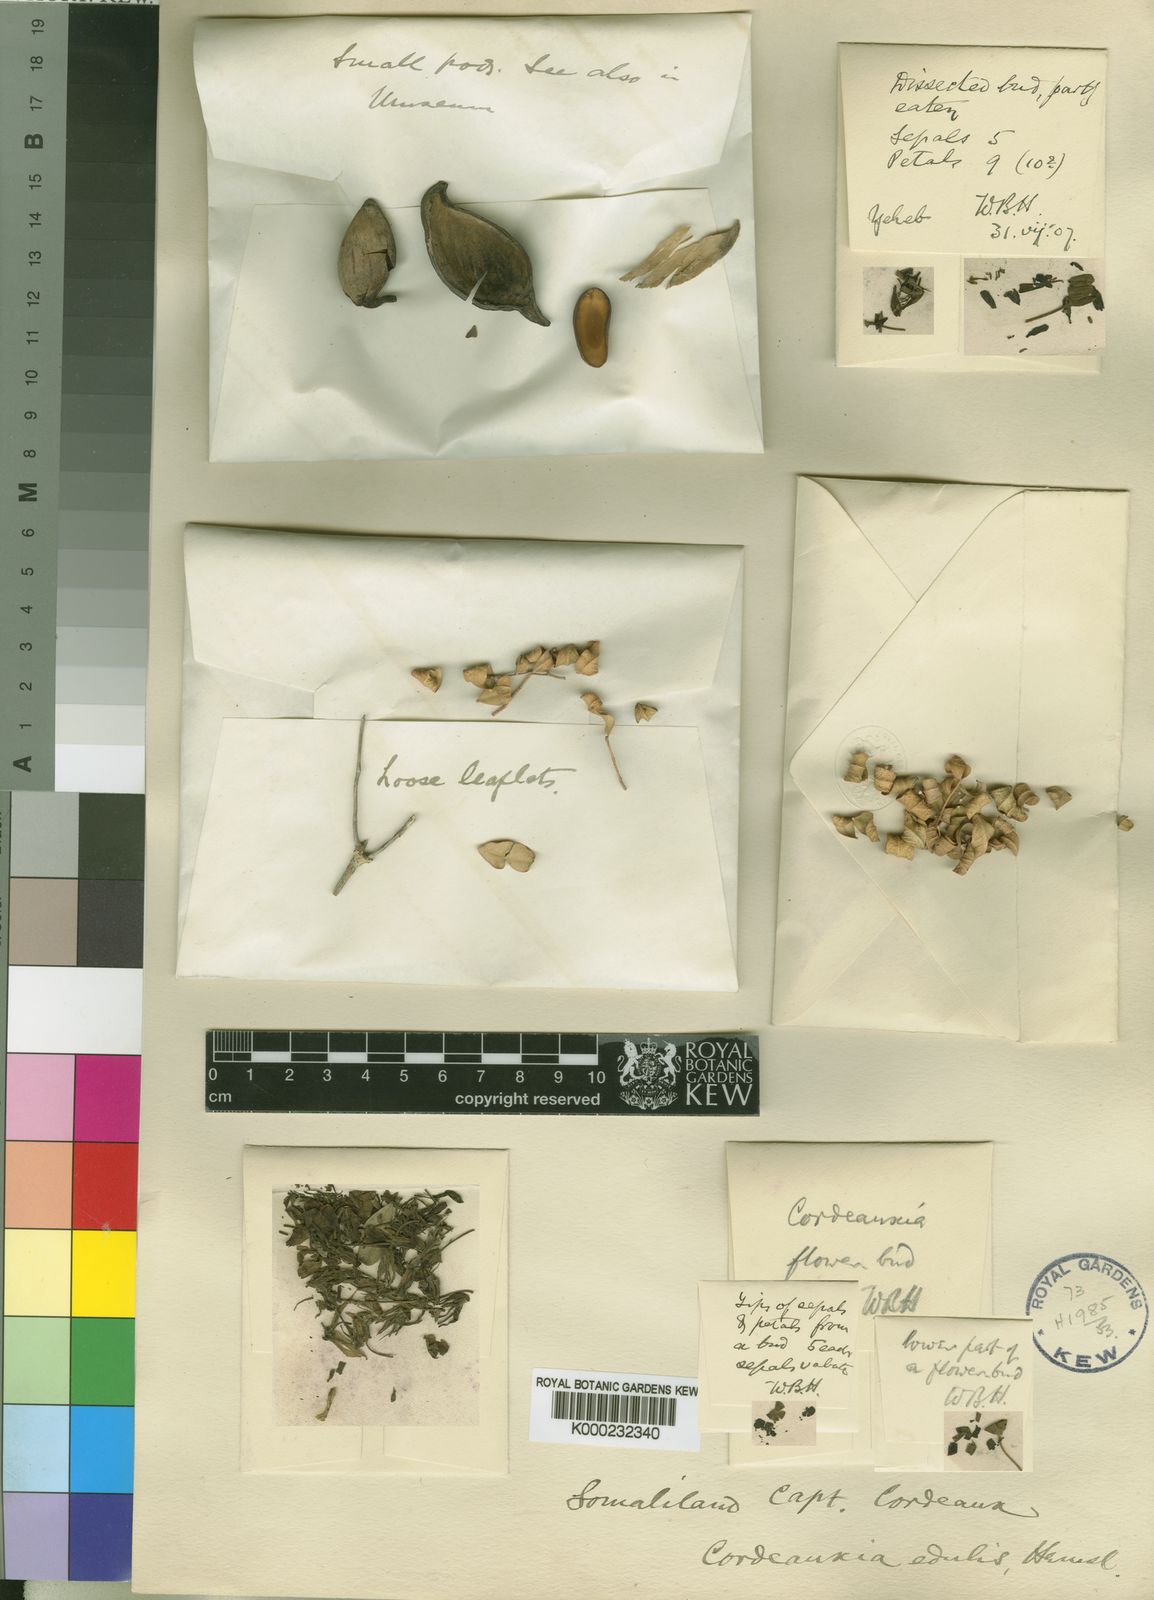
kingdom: Plantae
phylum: Tracheophyta
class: Magnoliopsida
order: Fabales
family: Fabaceae
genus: Cordeauxia
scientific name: Cordeauxia edulis
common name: Yeheb-nut-bush
